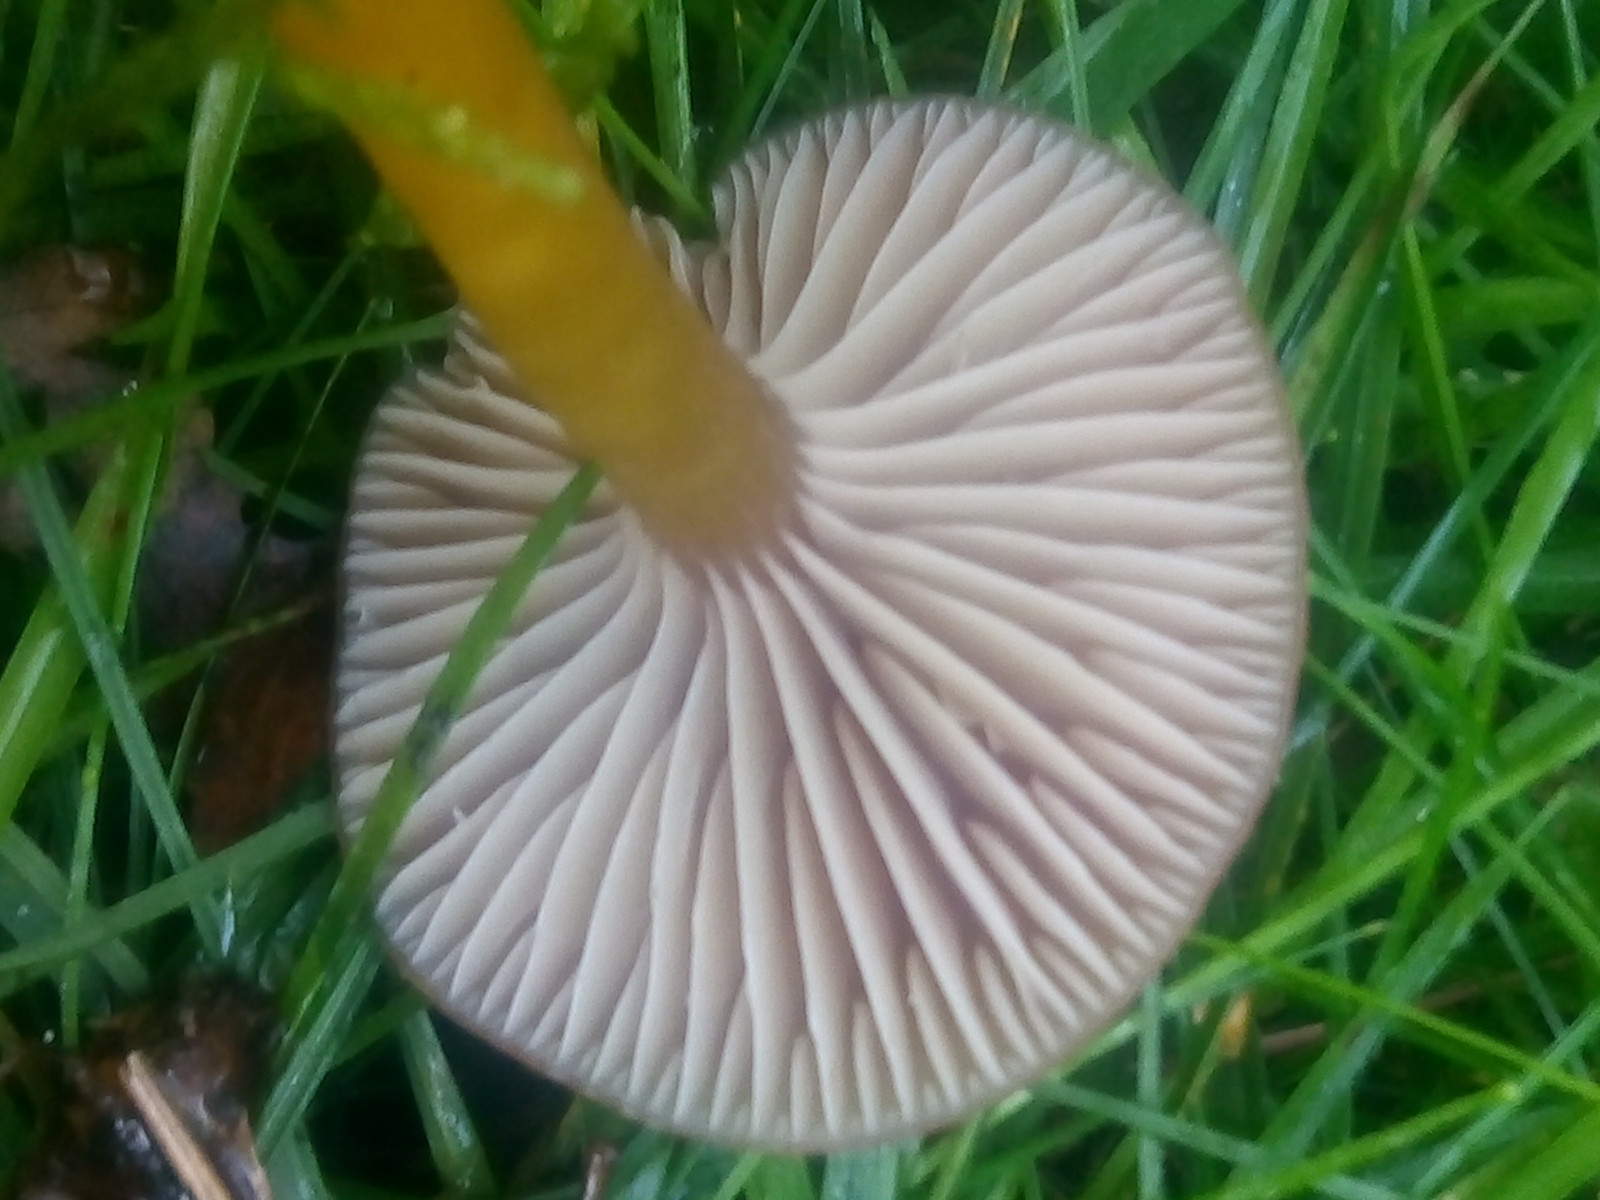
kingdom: Fungi
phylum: Basidiomycota
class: Agaricomycetes
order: Agaricales
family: Hygrophoraceae
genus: Gliophorus
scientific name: Gliophorus laetus
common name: brusk-vokshat
